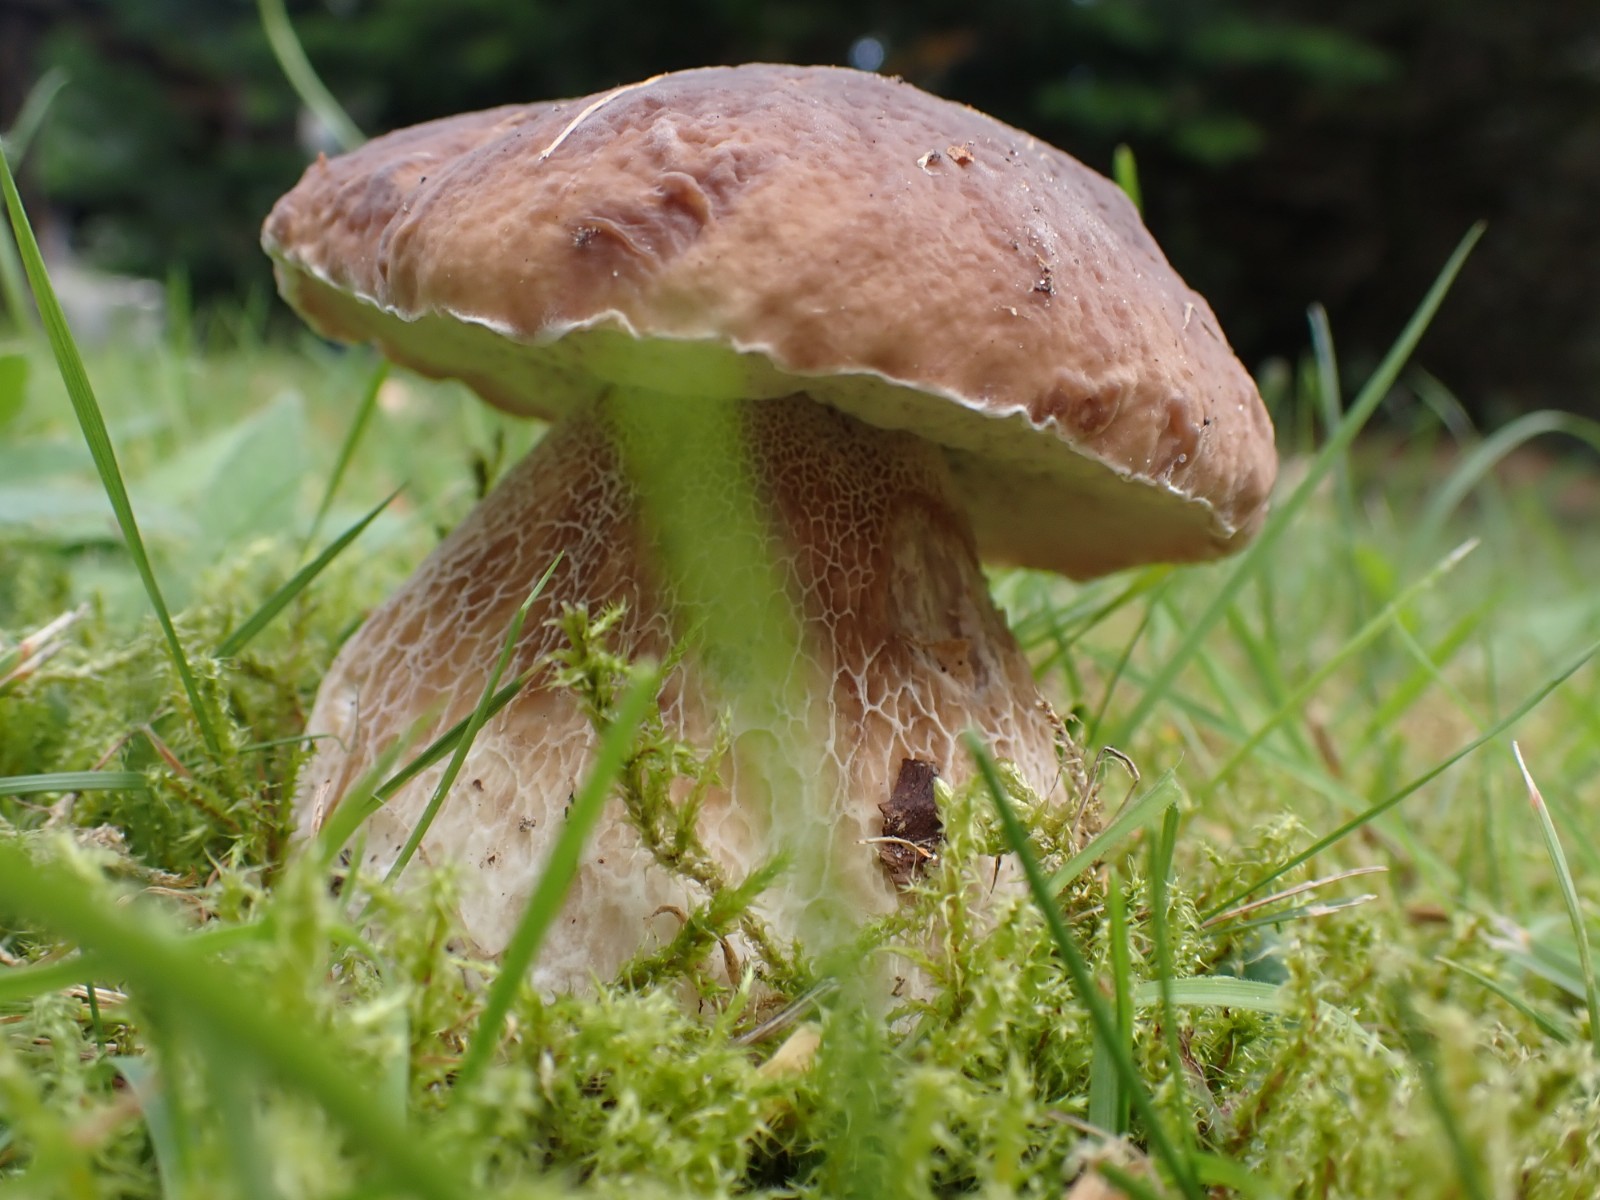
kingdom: Fungi
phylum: Basidiomycota
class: Agaricomycetes
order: Boletales
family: Boletaceae
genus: Boletus
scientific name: Boletus edulis
